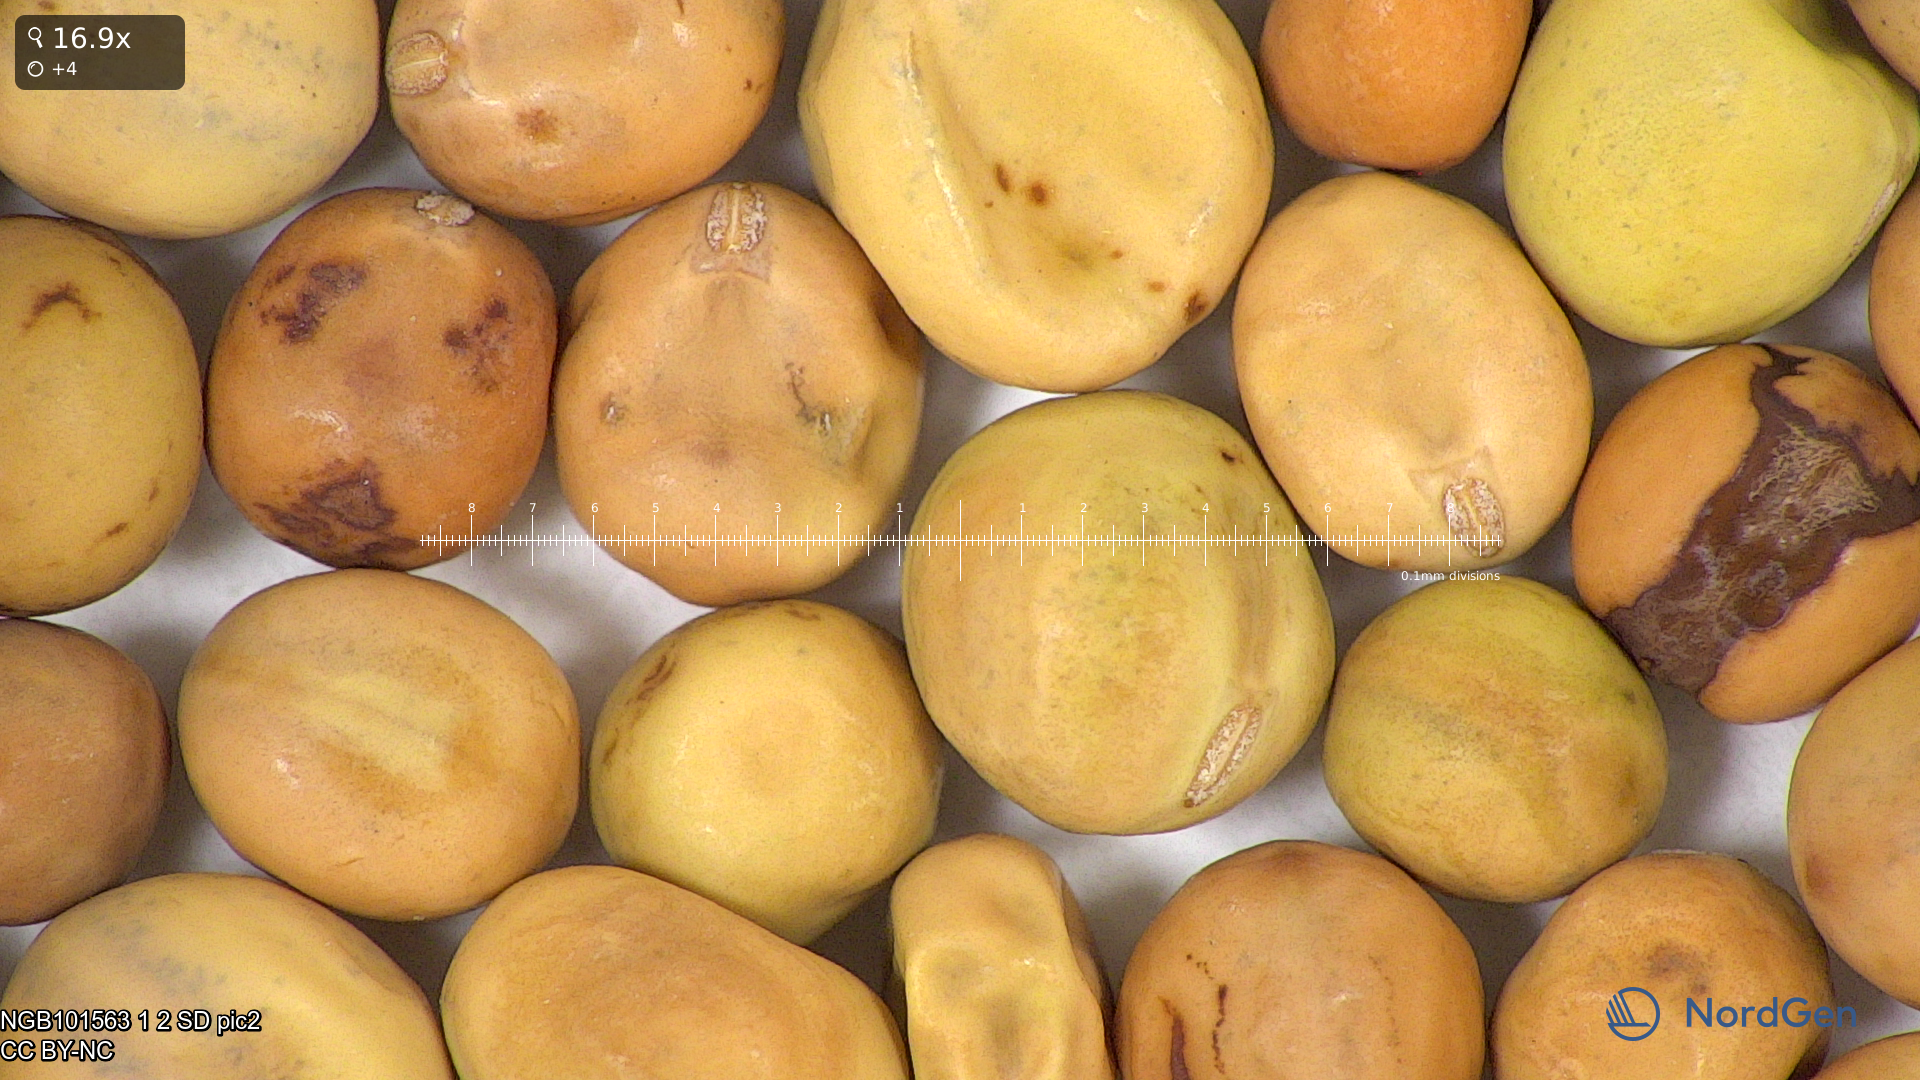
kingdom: Plantae
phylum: Tracheophyta
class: Magnoliopsida
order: Fabales
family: Fabaceae
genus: Lathyrus
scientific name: Lathyrus oleraceus
